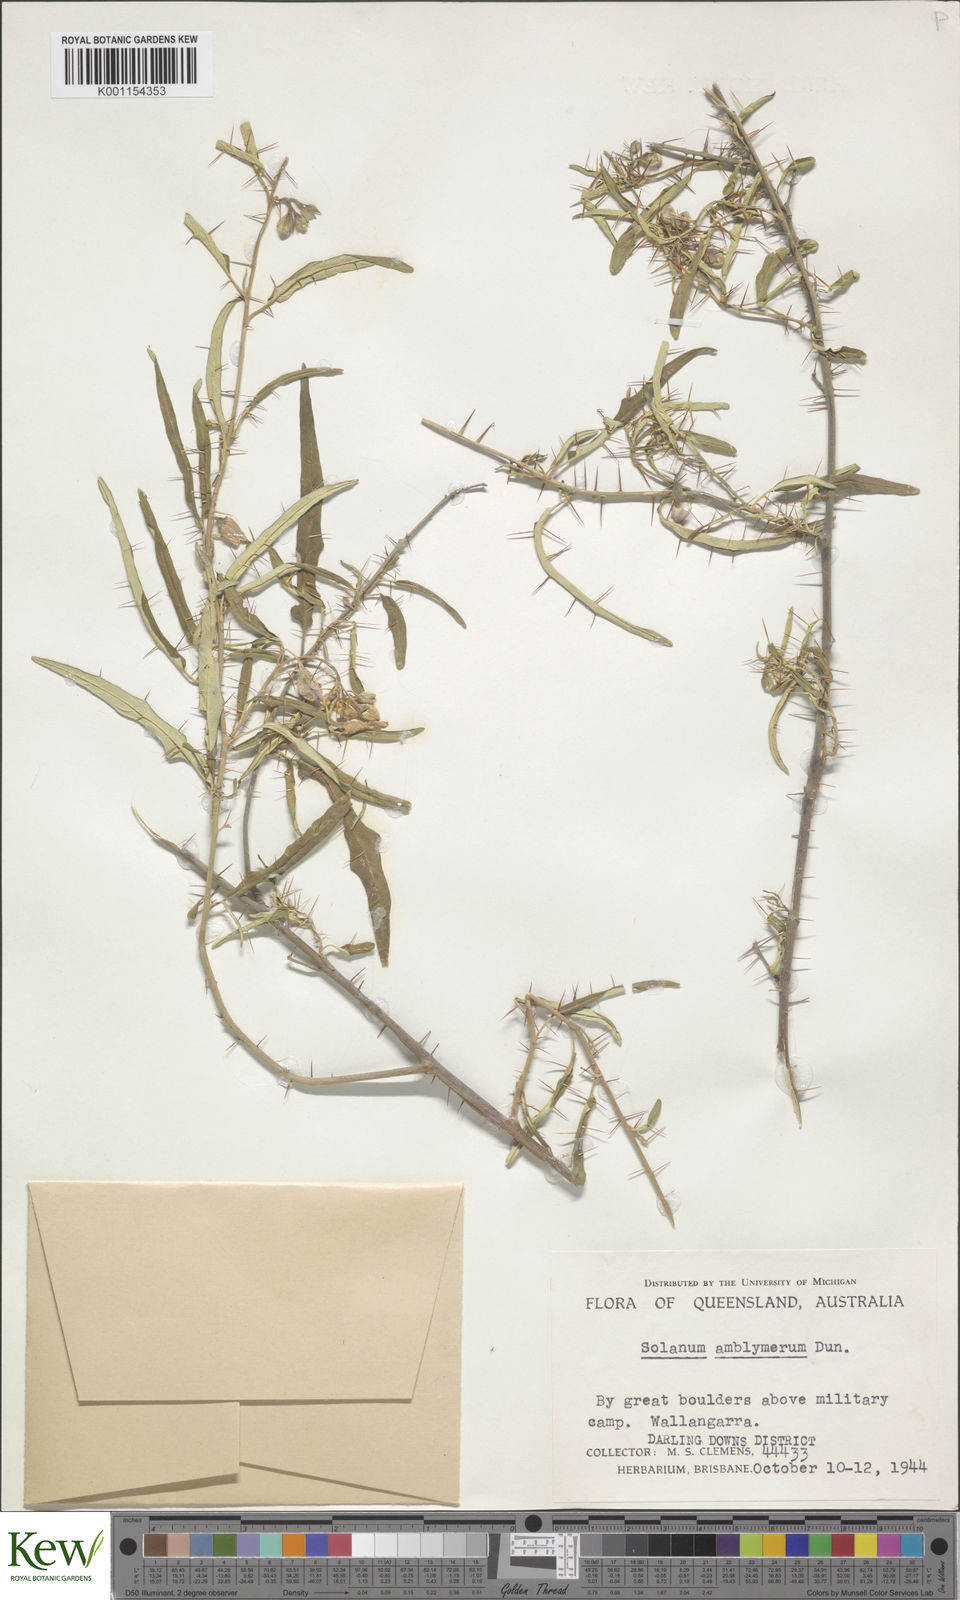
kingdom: Plantae
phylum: Tracheophyta
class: Magnoliopsida
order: Solanales
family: Solanaceae
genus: Solanum
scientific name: Solanum elegans
